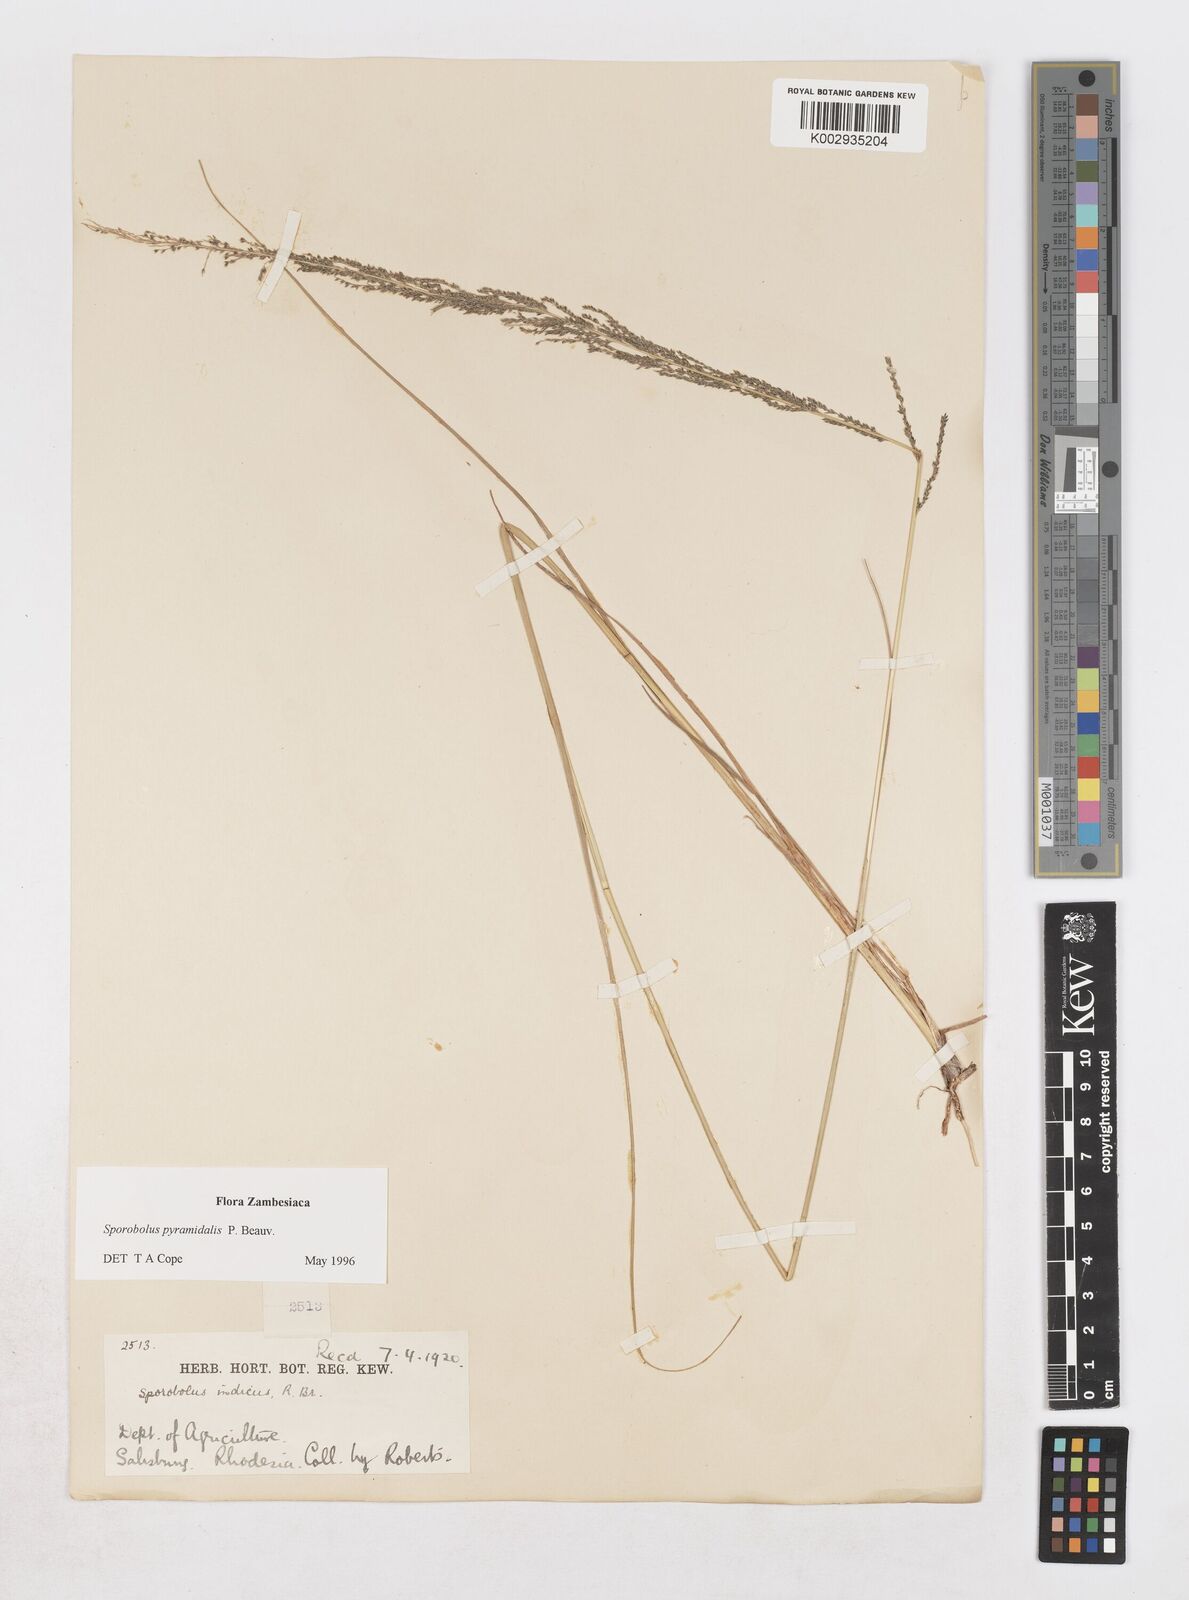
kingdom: Plantae
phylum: Tracheophyta
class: Liliopsida
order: Poales
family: Poaceae
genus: Sporobolus
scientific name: Sporobolus pyramidalis
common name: West indian dropseed
